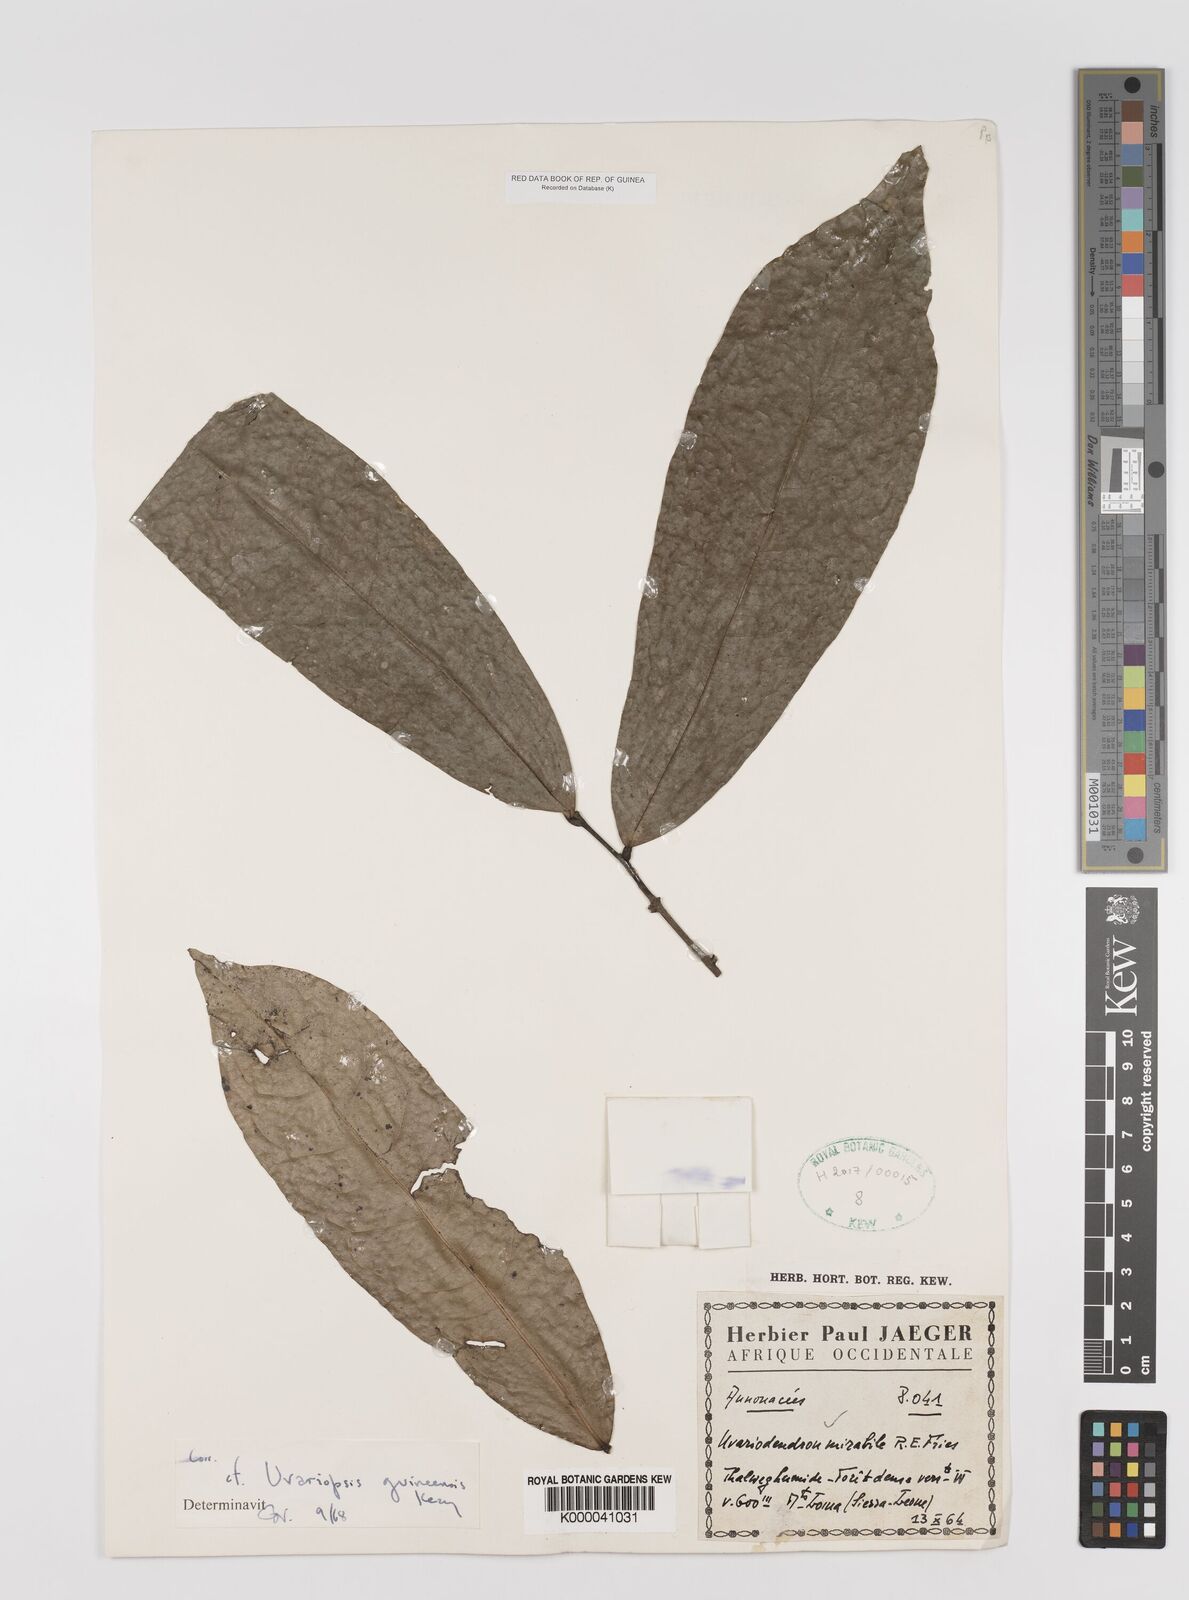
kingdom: Plantae
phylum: Tracheophyta
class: Magnoliopsida
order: Magnoliales
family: Annonaceae
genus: Uvariopsis
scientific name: Uvariopsis guineensis
